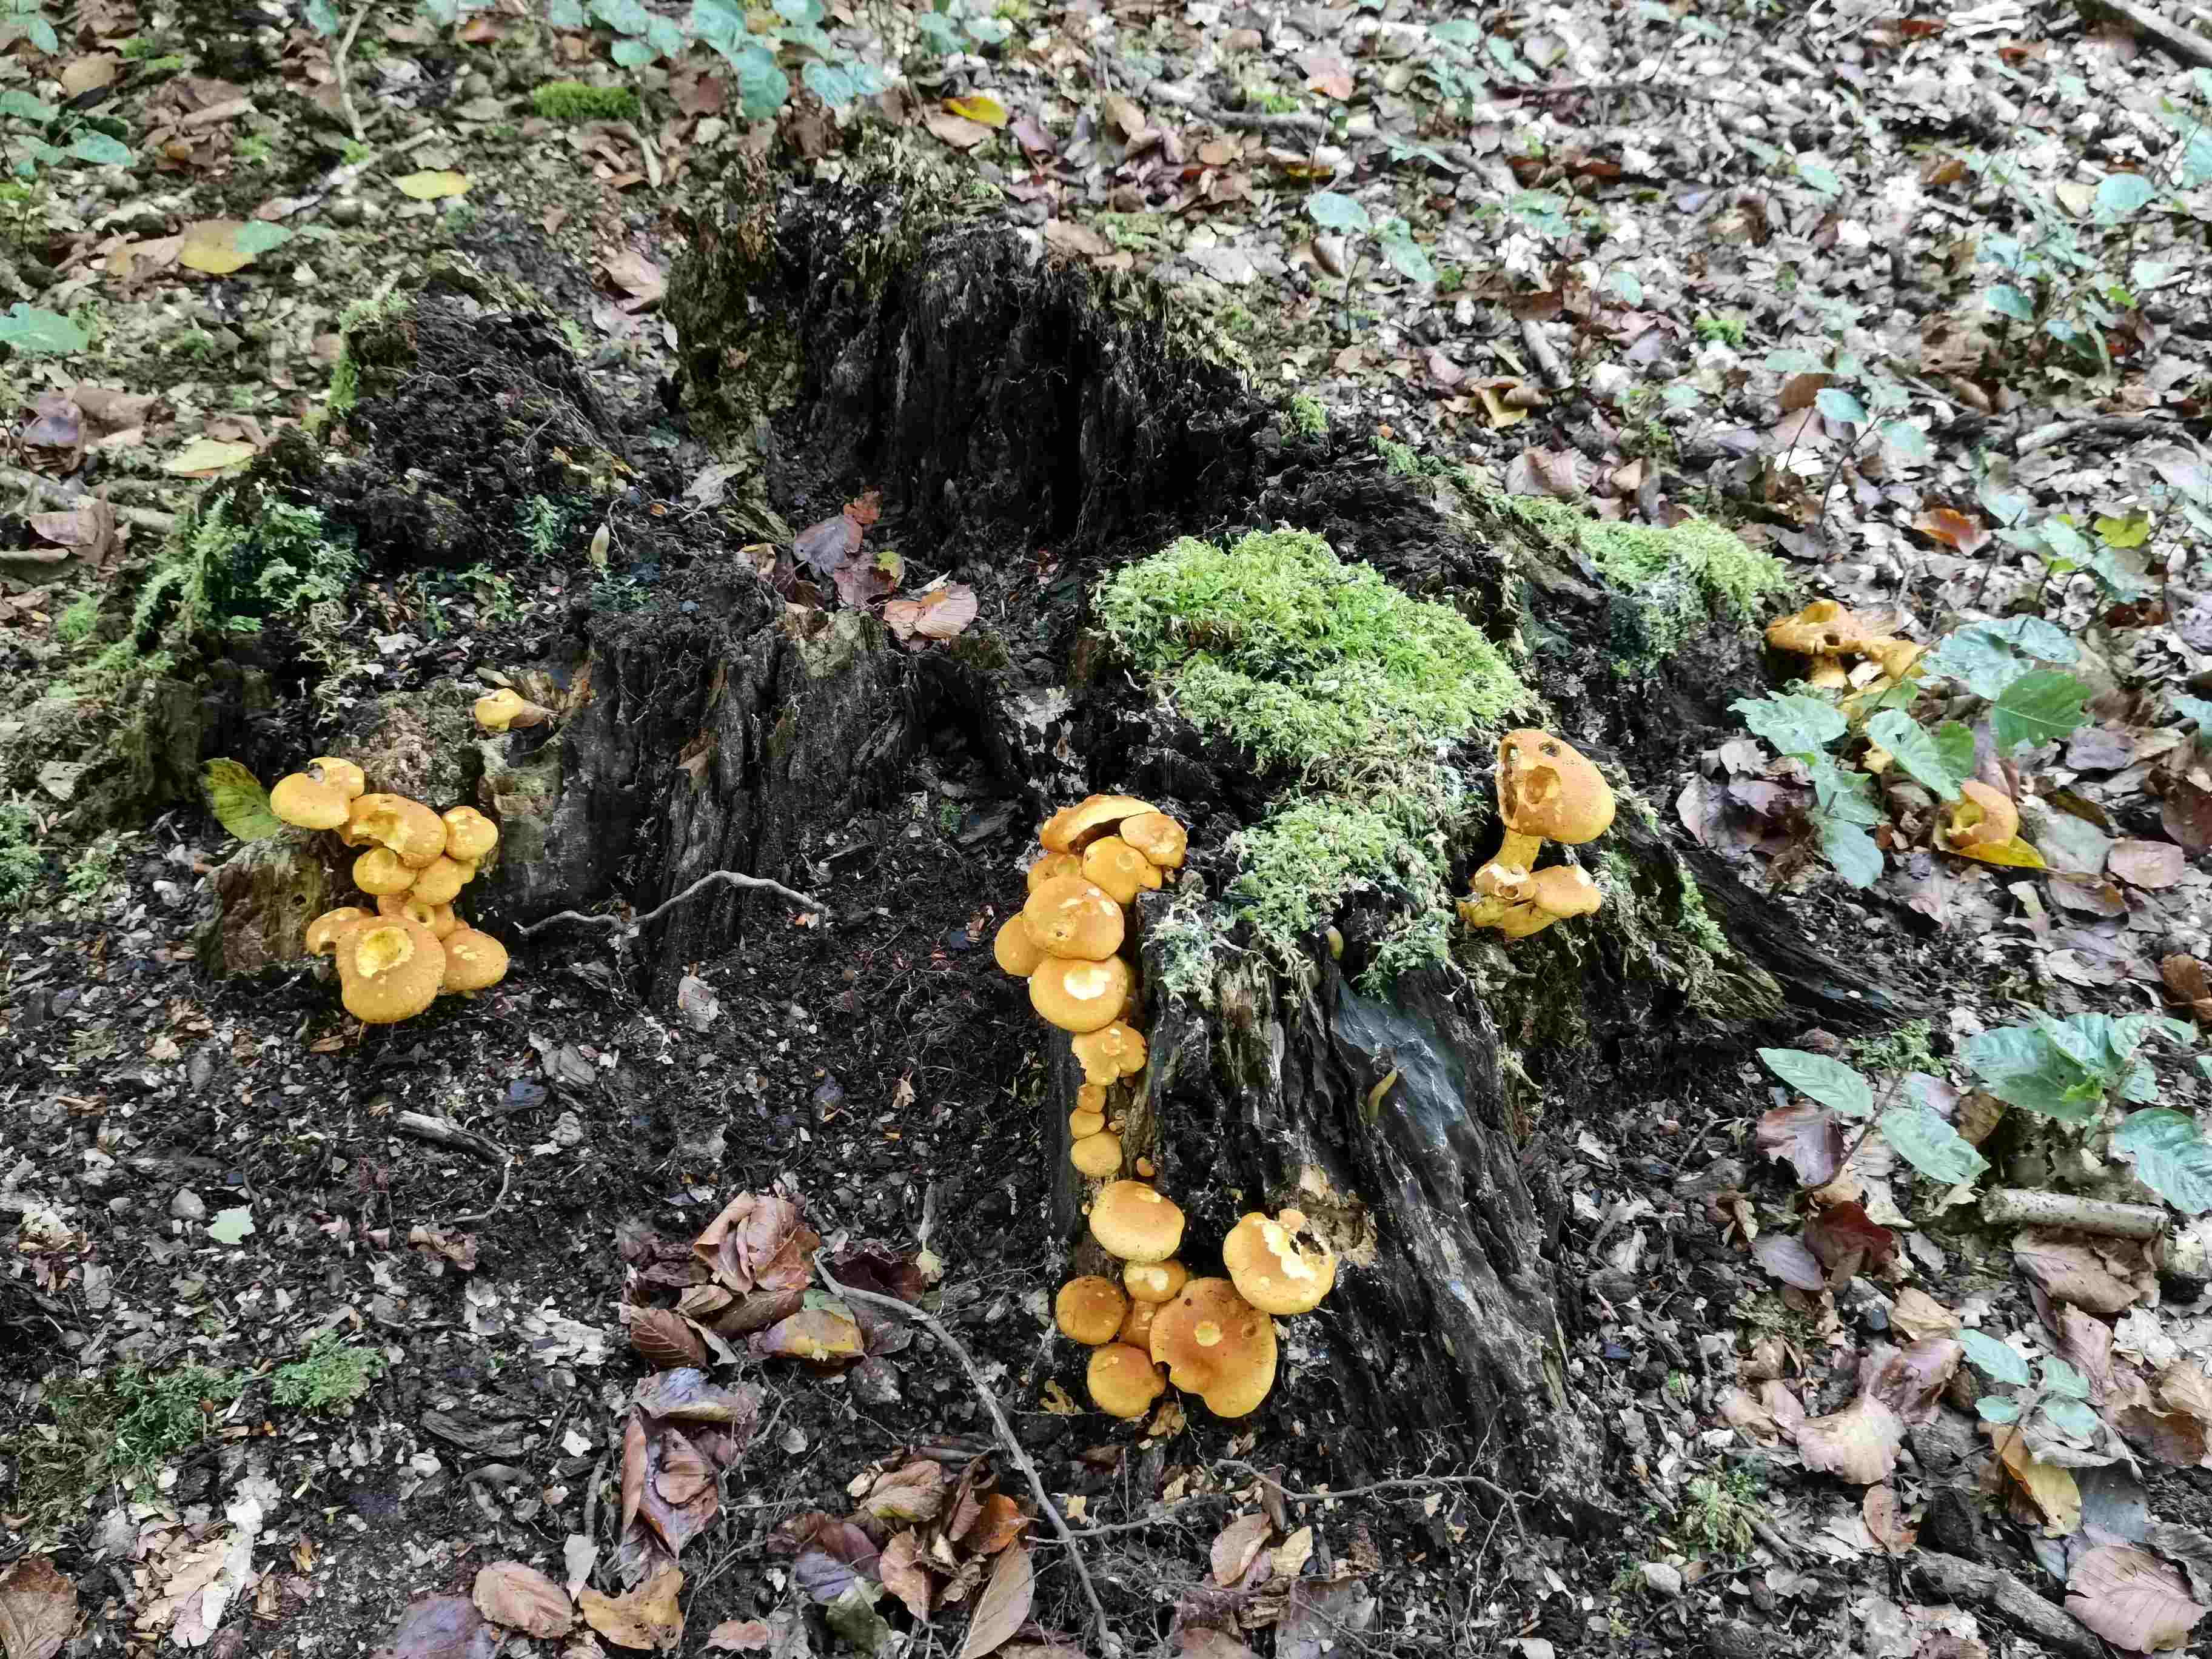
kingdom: Fungi
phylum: Basidiomycota
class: Agaricomycetes
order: Agaricales
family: Hymenogastraceae
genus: Gymnopilus
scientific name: Gymnopilus spectabilis
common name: fibret flammehat
